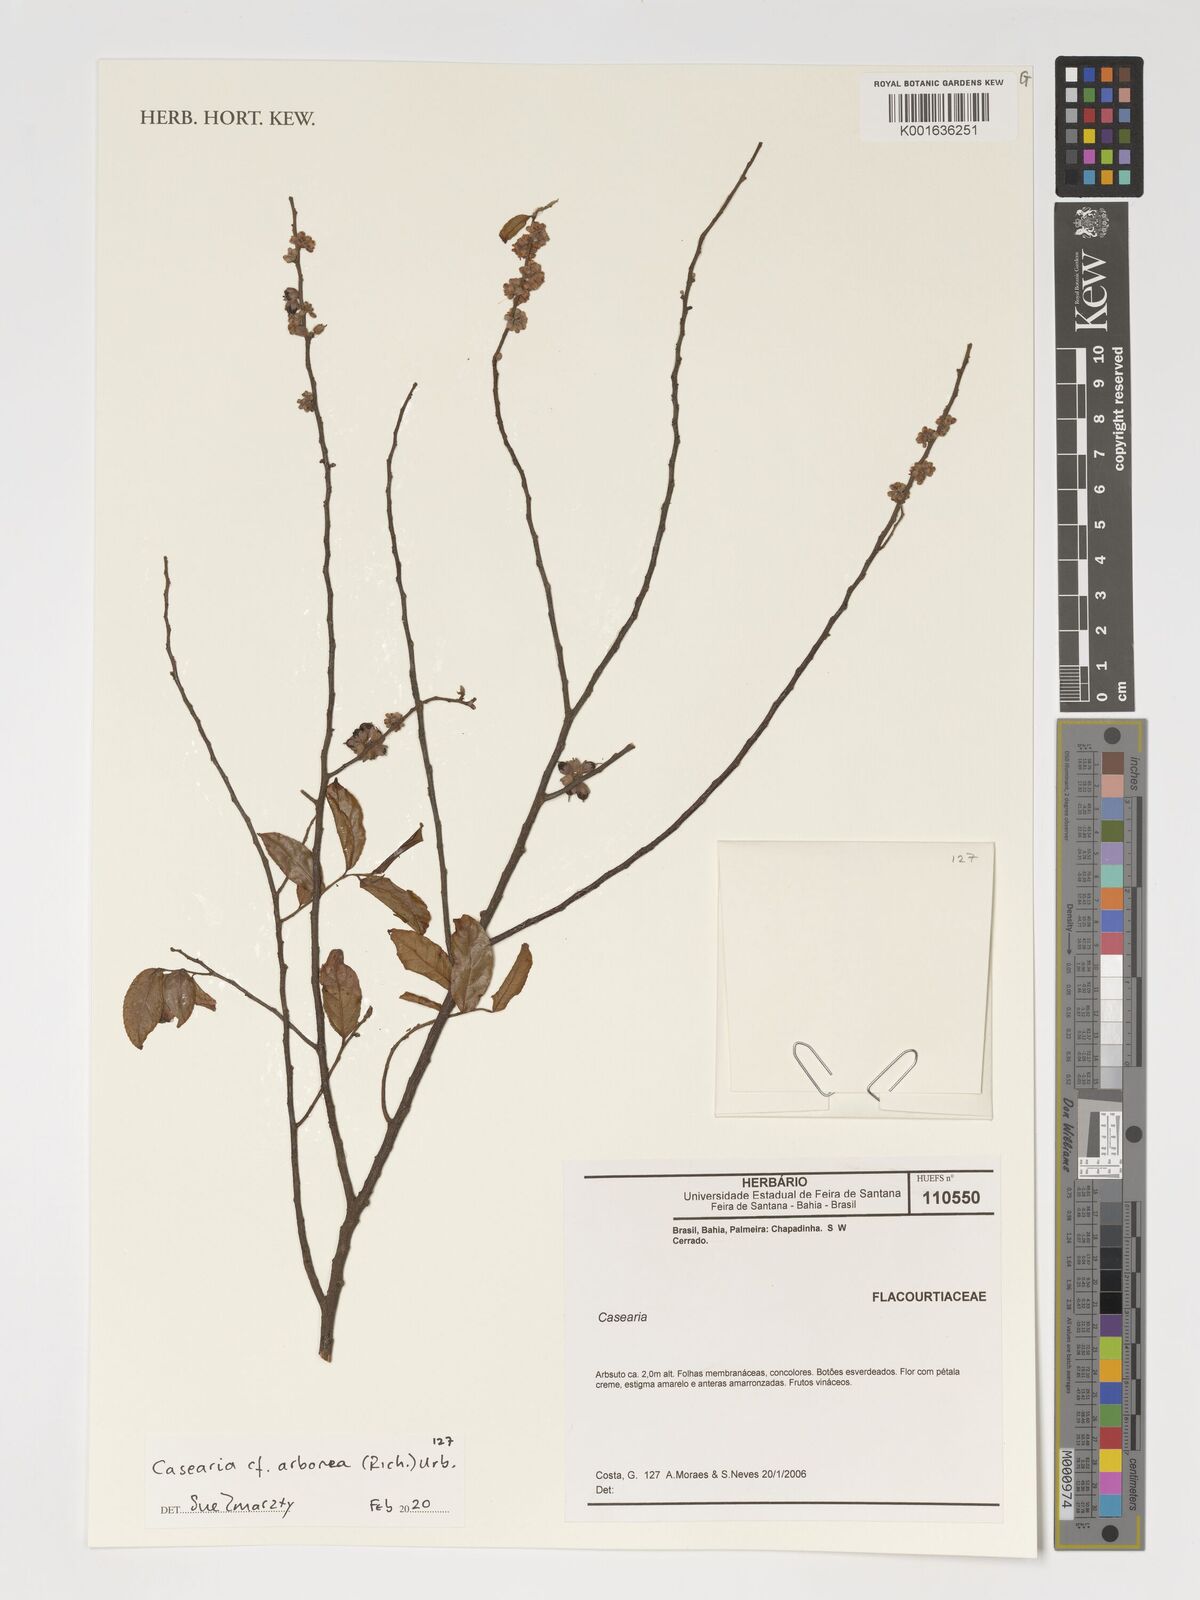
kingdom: Plantae
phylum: Tracheophyta
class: Magnoliopsida
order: Malpighiales
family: Salicaceae
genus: Casearia
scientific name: Casearia arborea
